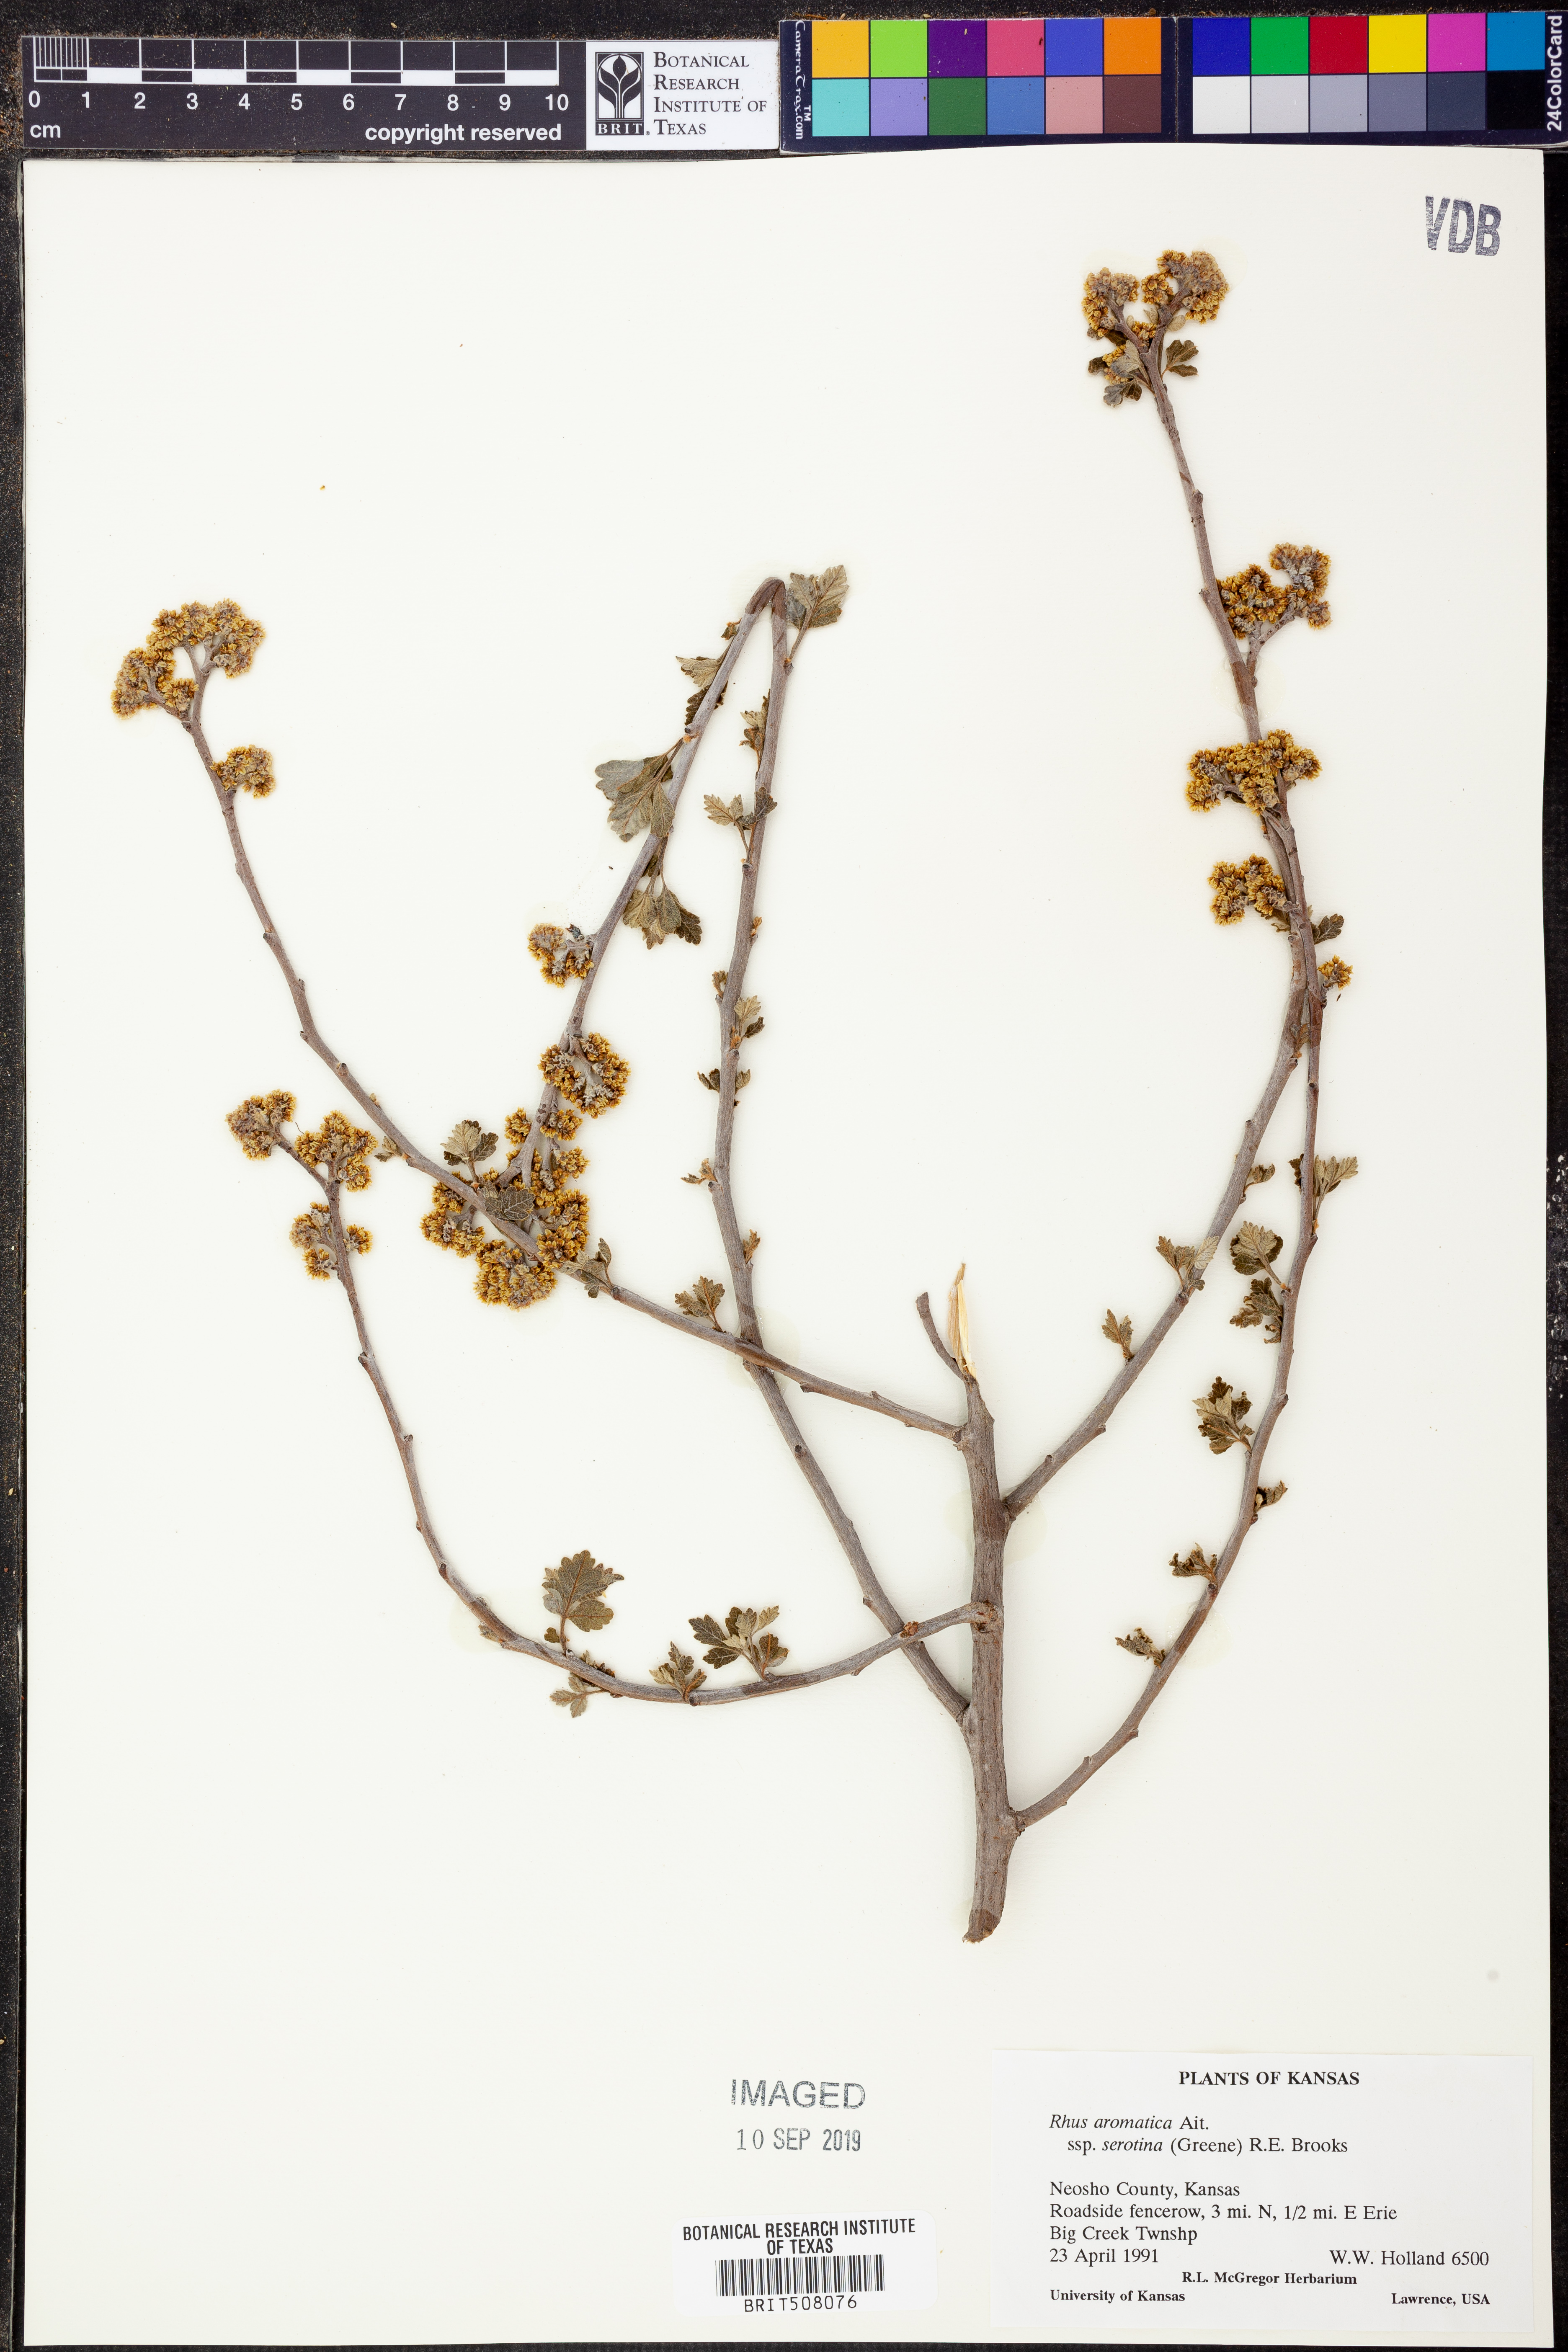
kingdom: Plantae
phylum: Tracheophyta
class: Magnoliopsida
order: Sapindales
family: Anacardiaceae
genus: Rhus
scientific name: Rhus aromatica
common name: Aromatic sumac
